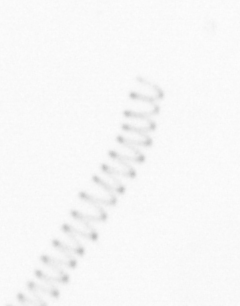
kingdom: Chromista
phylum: Ochrophyta
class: Bacillariophyceae
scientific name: Bacillariophyceae
